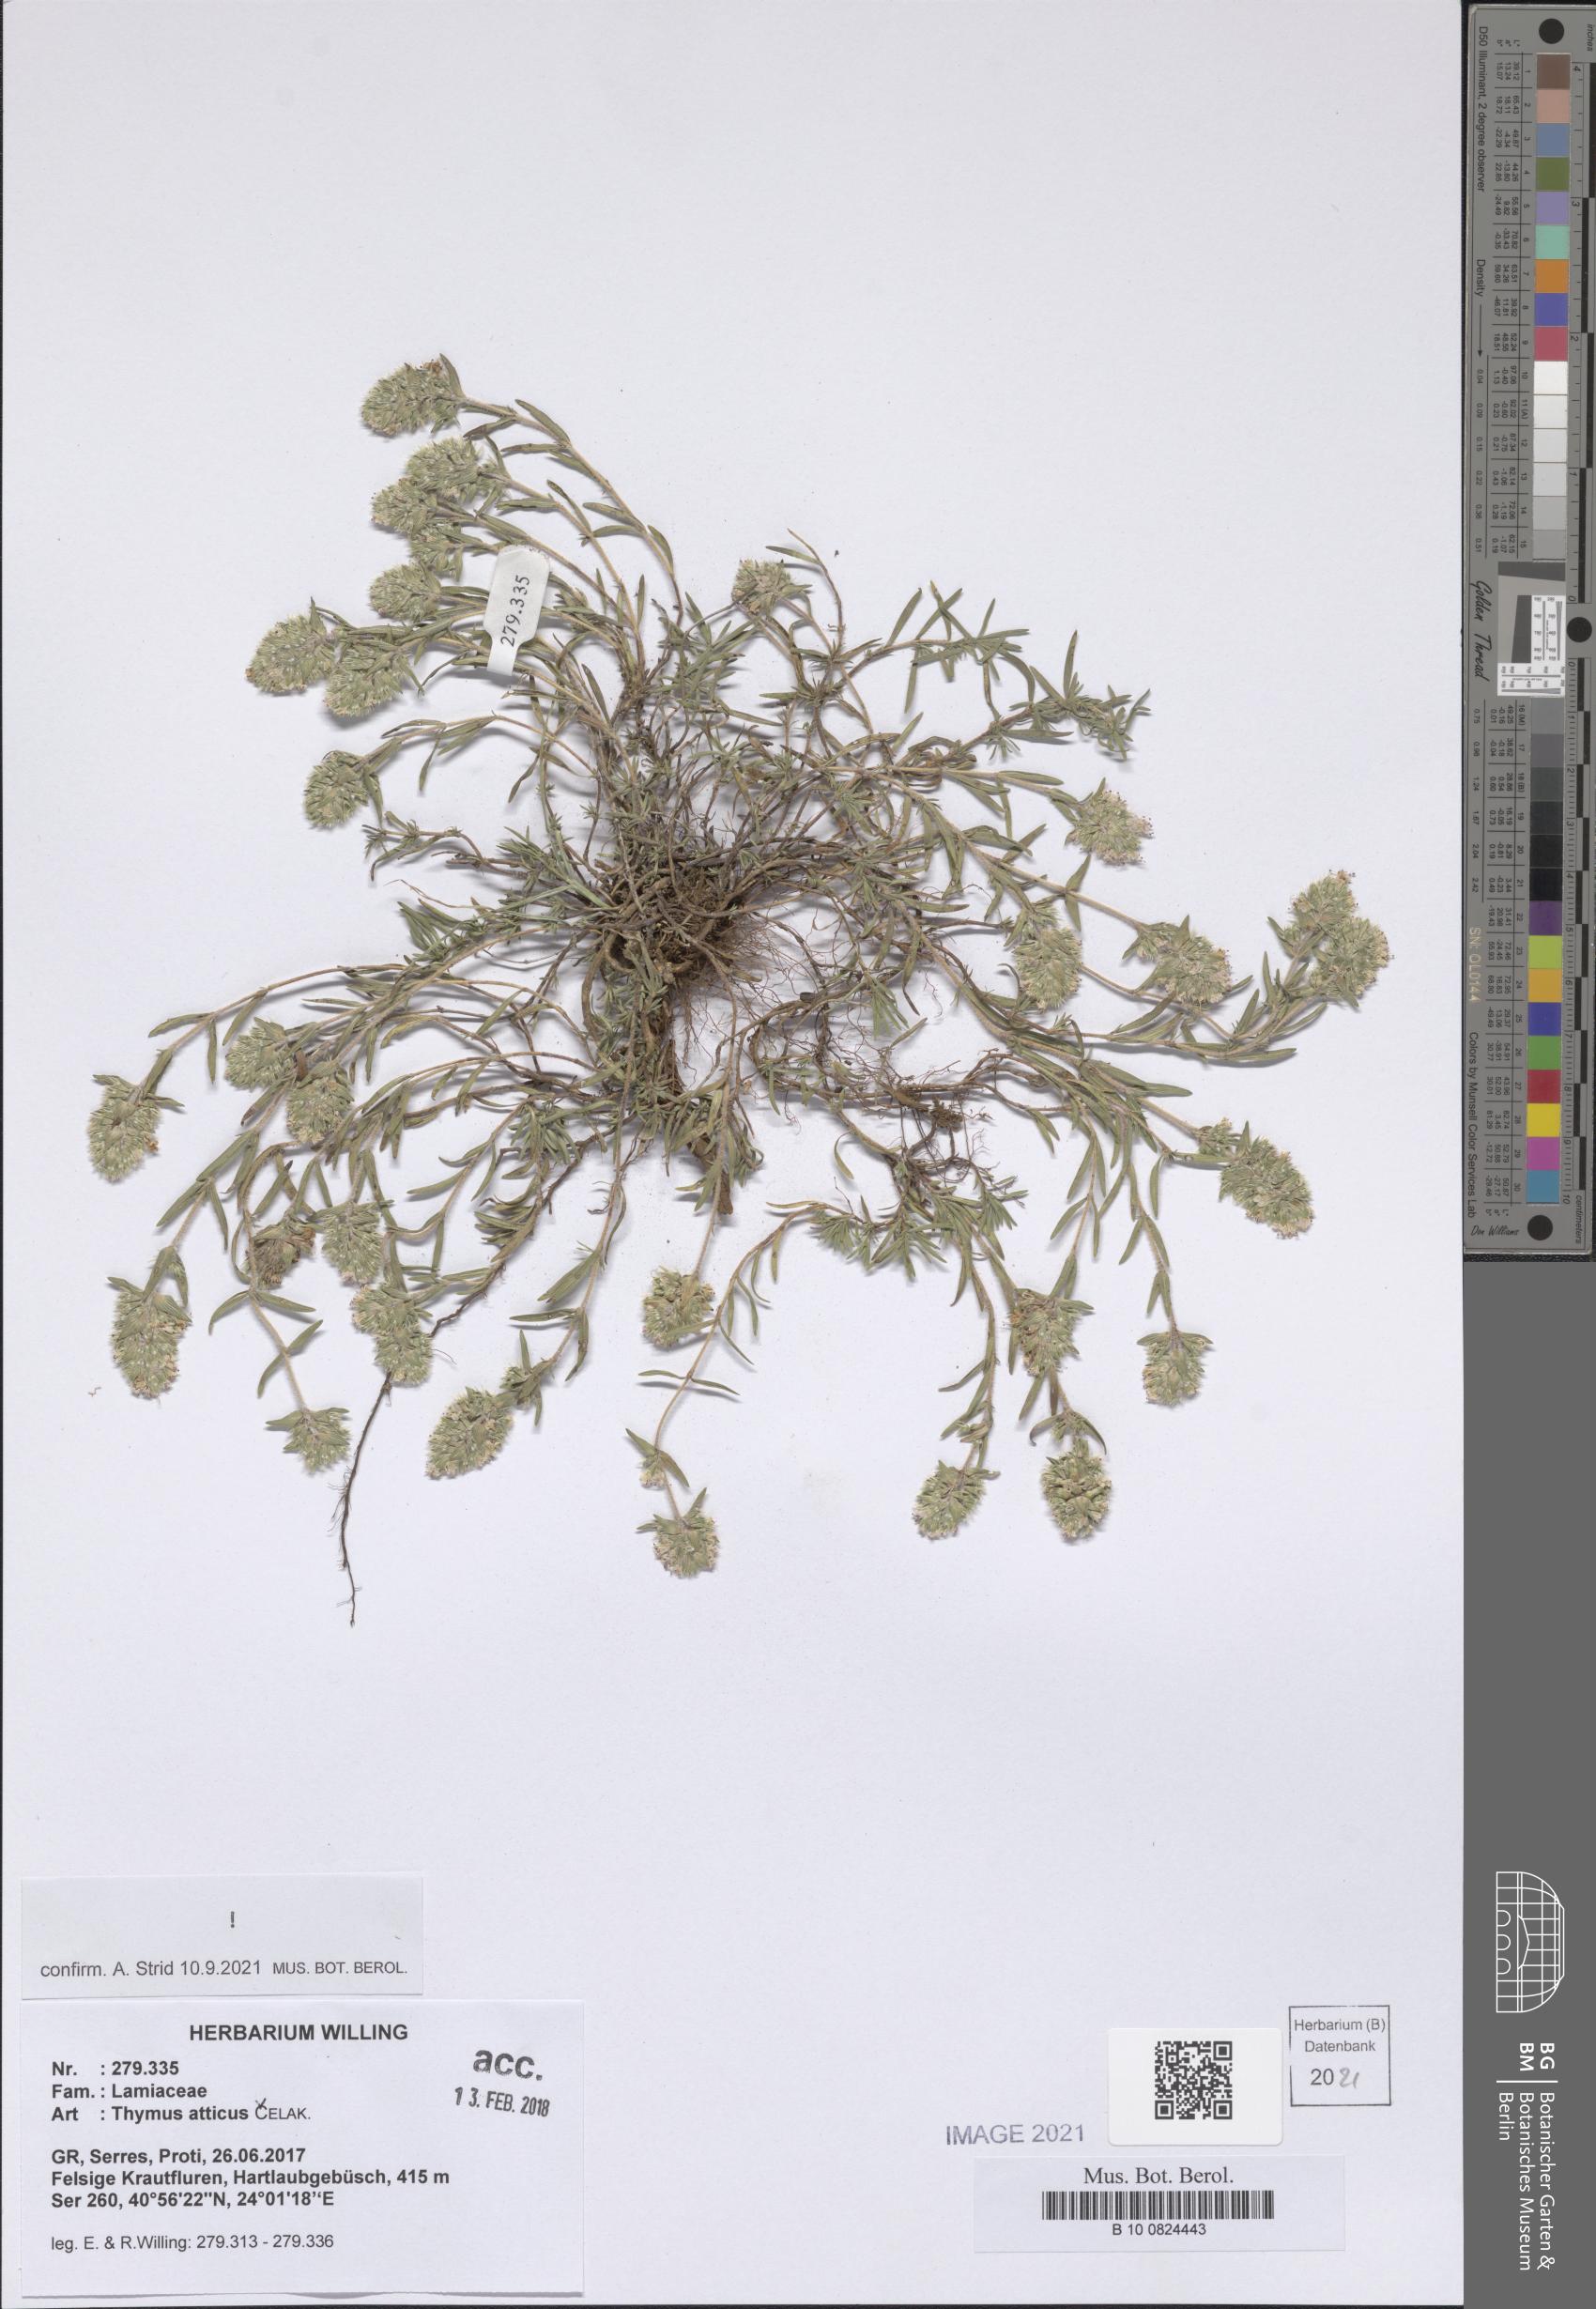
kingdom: Plantae
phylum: Tracheophyta
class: Magnoliopsida
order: Lamiales
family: Lamiaceae
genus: Thymus
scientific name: Thymus atticus
